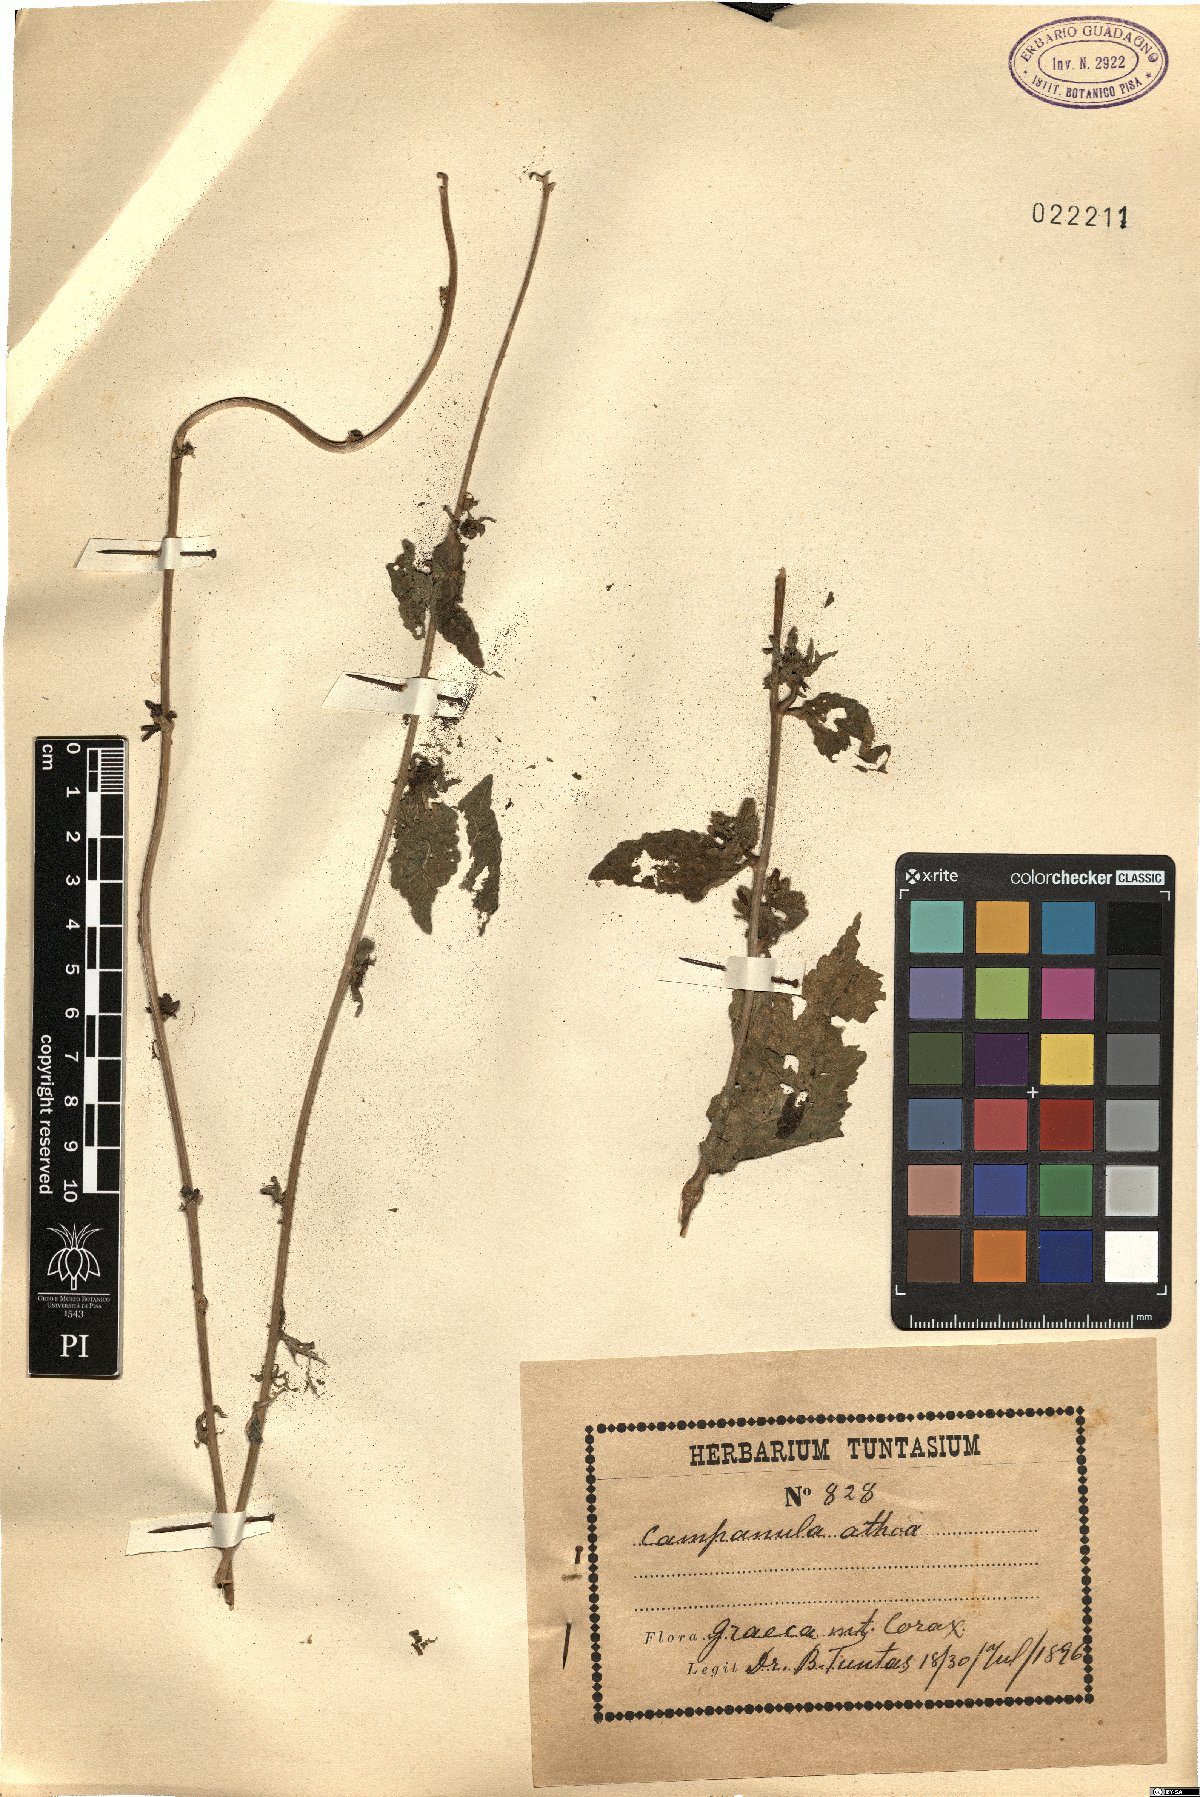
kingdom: Plantae
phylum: Tracheophyta
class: Magnoliopsida
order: Asterales
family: Campanulaceae
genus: Campanula
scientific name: Campanula trachelium
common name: Nettle-leaved bellflower
